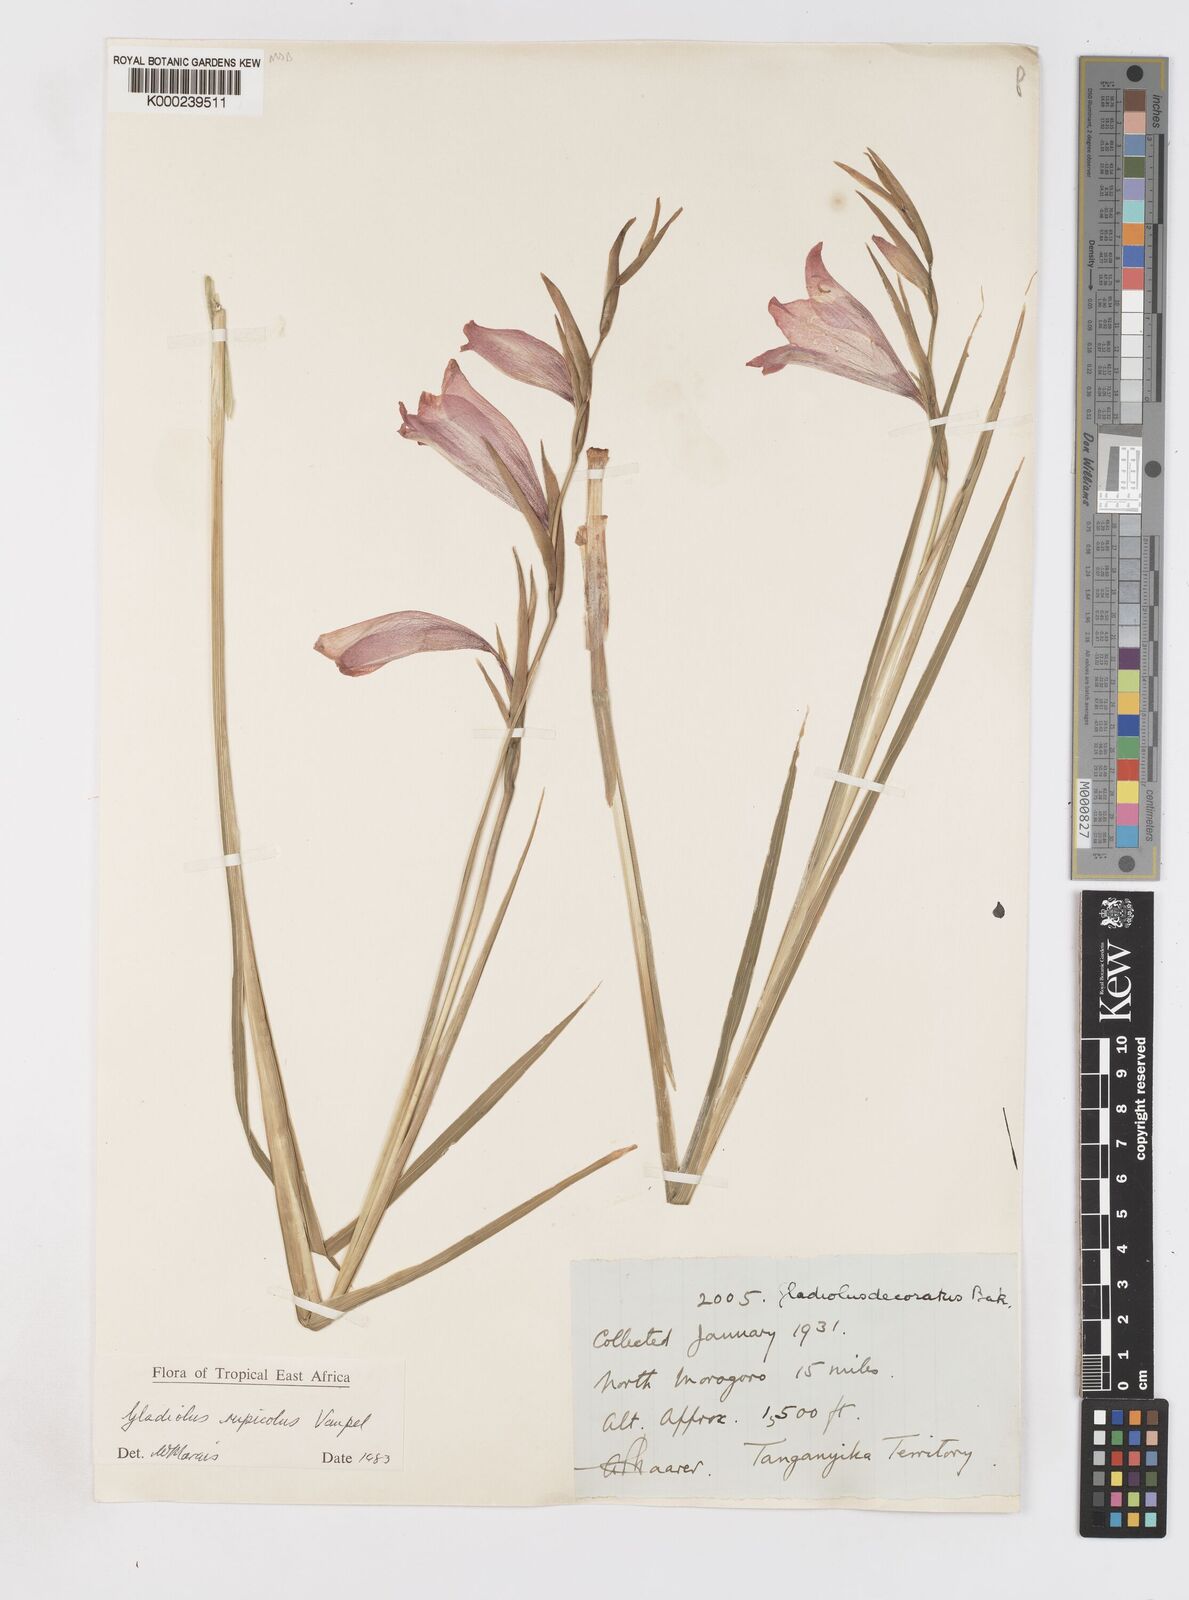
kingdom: Plantae
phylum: Tracheophyta
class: Liliopsida
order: Asparagales
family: Iridaceae
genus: Gladiolus
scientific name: Gladiolus rupicola
